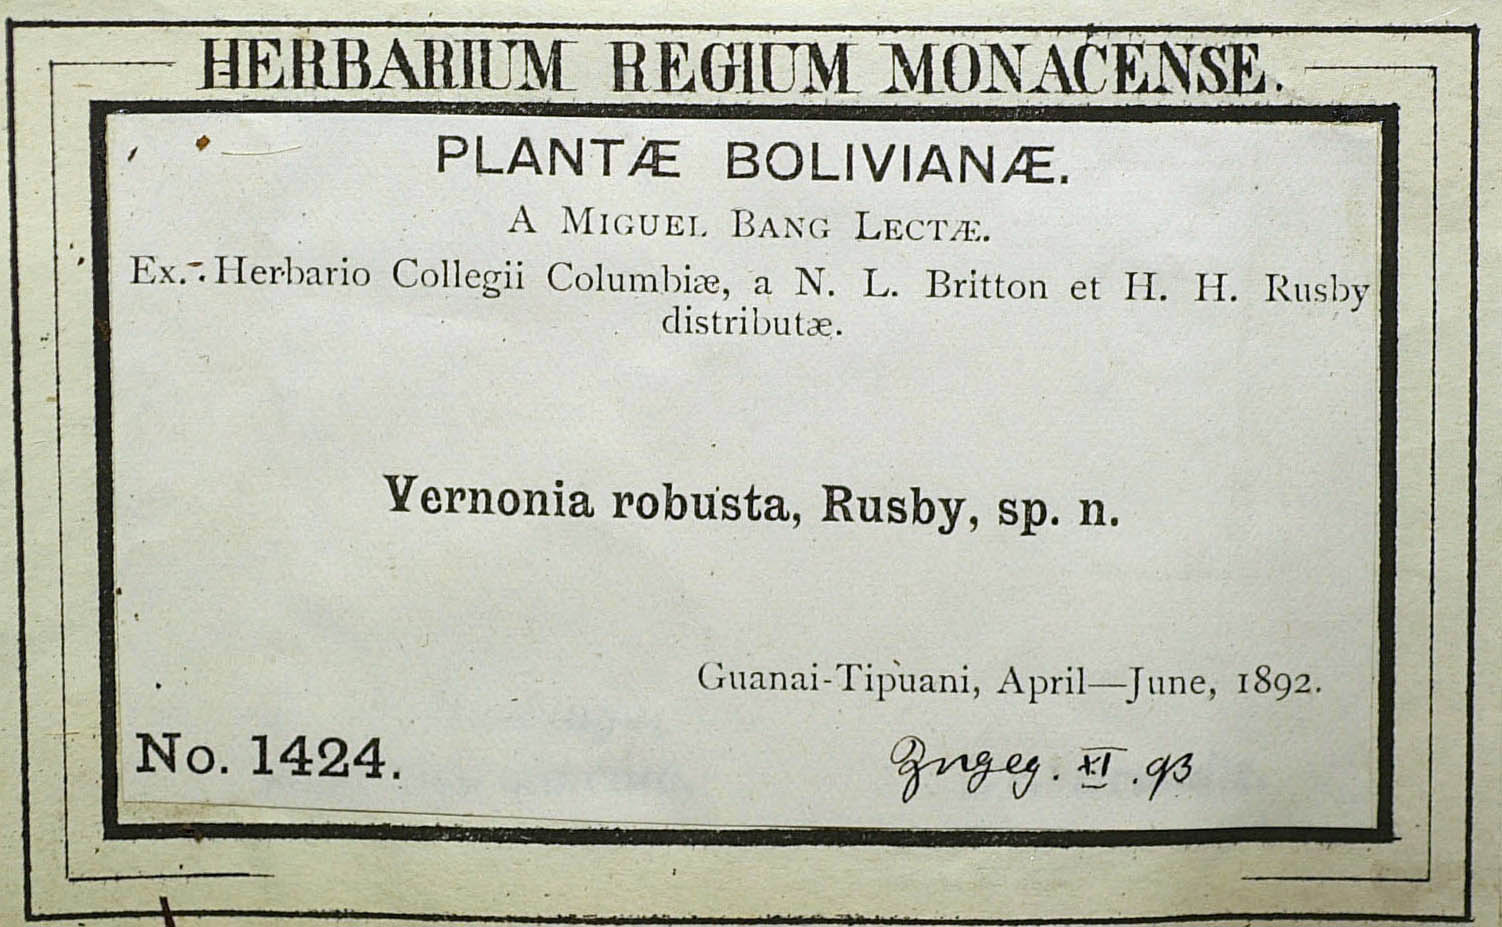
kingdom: Plantae
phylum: Tracheophyta
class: Magnoliopsida
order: Asterales
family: Asteraceae
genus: Lessingianthus
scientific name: Lessingianthus robustus
